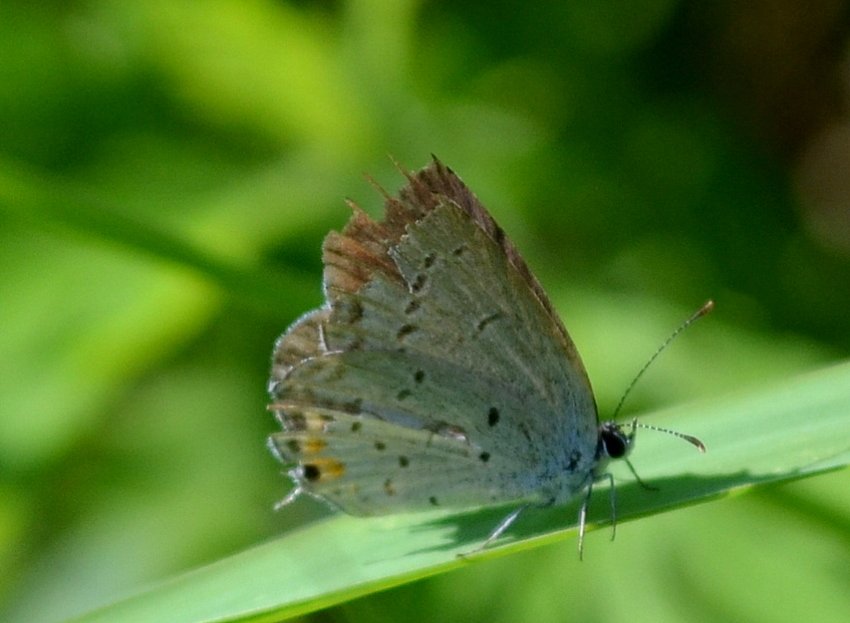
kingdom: Animalia
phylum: Arthropoda
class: Insecta
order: Lepidoptera
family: Lycaenidae
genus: Elkalyce
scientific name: Elkalyce comyntas
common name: Eastern Tailed-Blue
